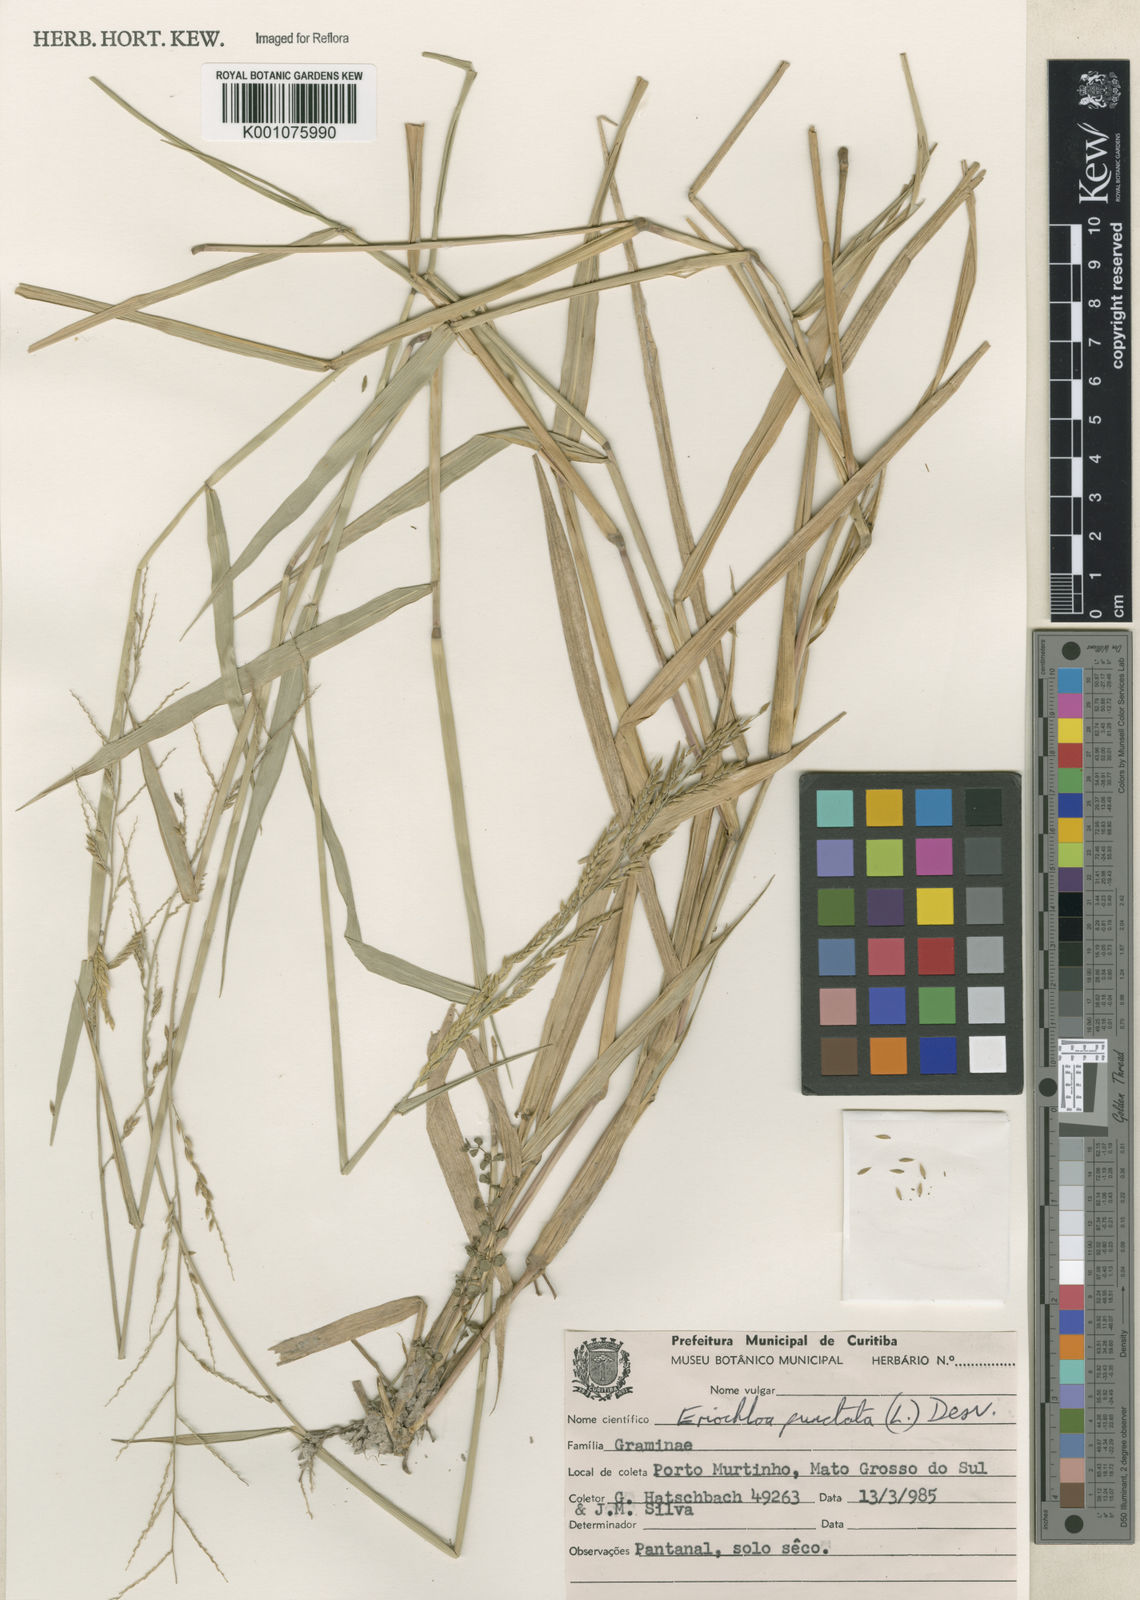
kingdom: Plantae
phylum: Tracheophyta
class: Liliopsida
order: Poales
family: Poaceae
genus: Eriochloa
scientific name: Eriochloa punctata
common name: Louisiana cupgrass
